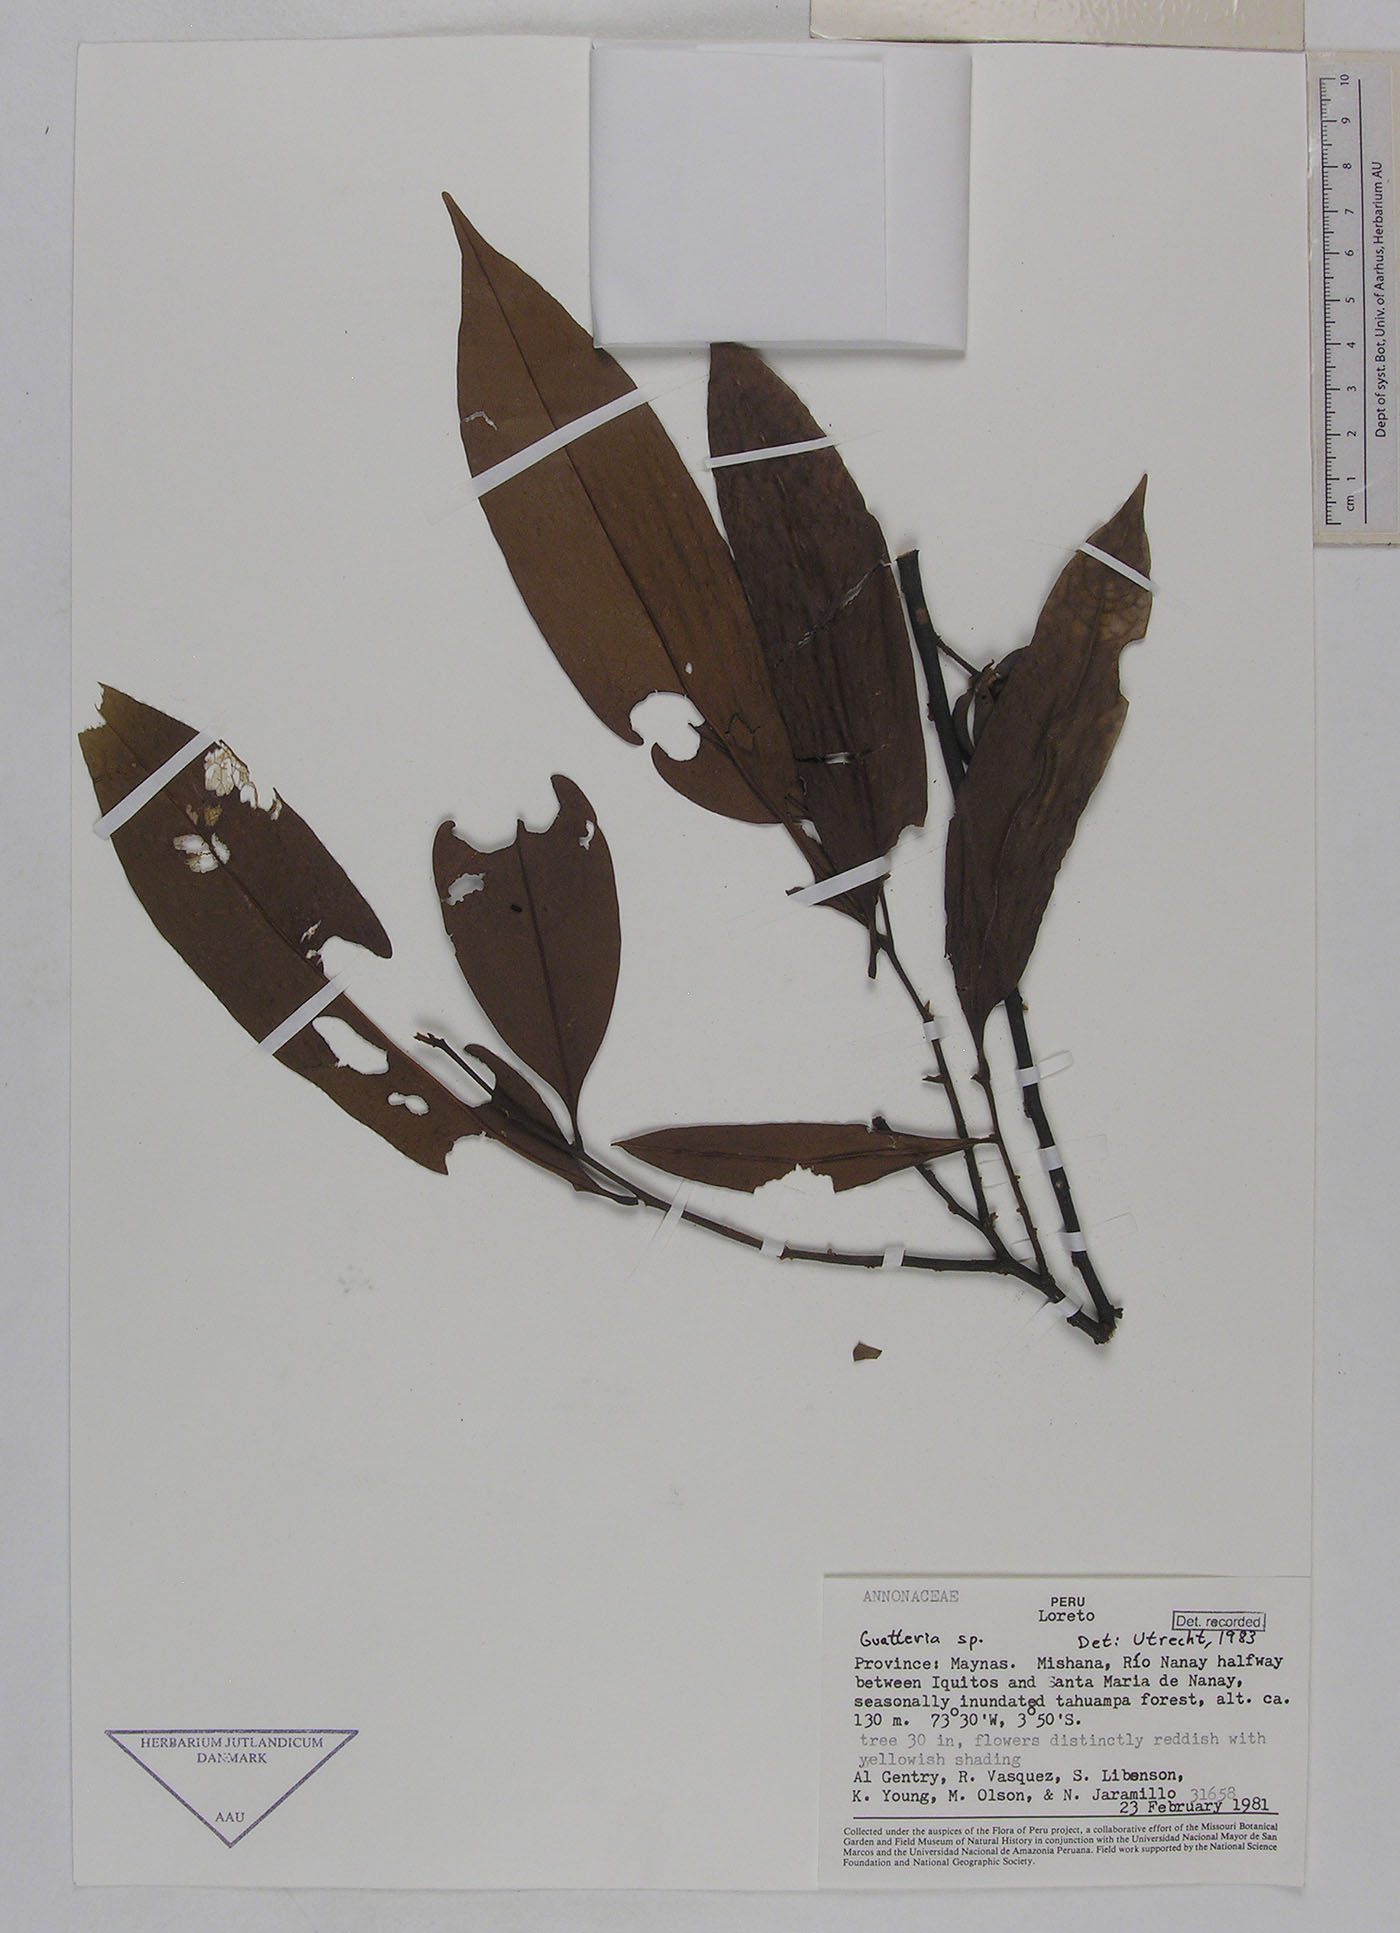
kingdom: Plantae
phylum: Tracheophyta
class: Magnoliopsida
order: Magnoliales
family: Annonaceae
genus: Guatteria
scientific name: Guatteria modesta
